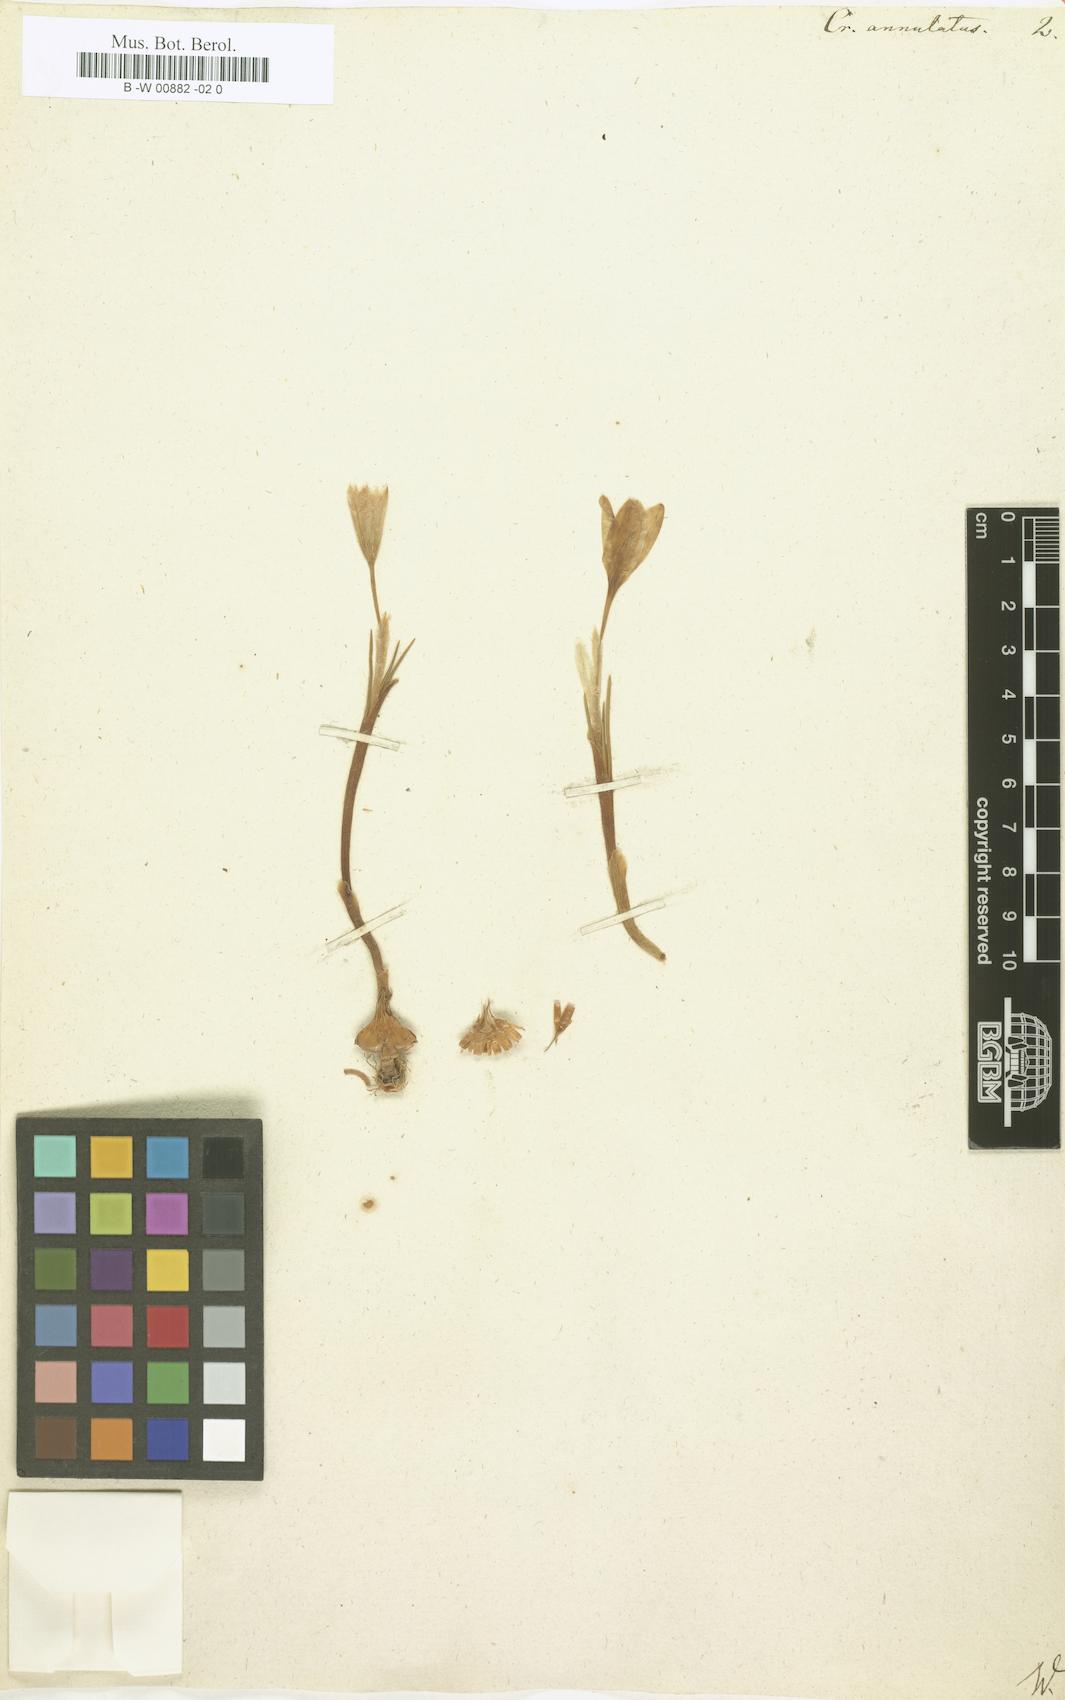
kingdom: Plantae
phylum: Tracheophyta
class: Liliopsida
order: Asparagales
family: Iridaceae
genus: Crocus
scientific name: Crocus annulatus
